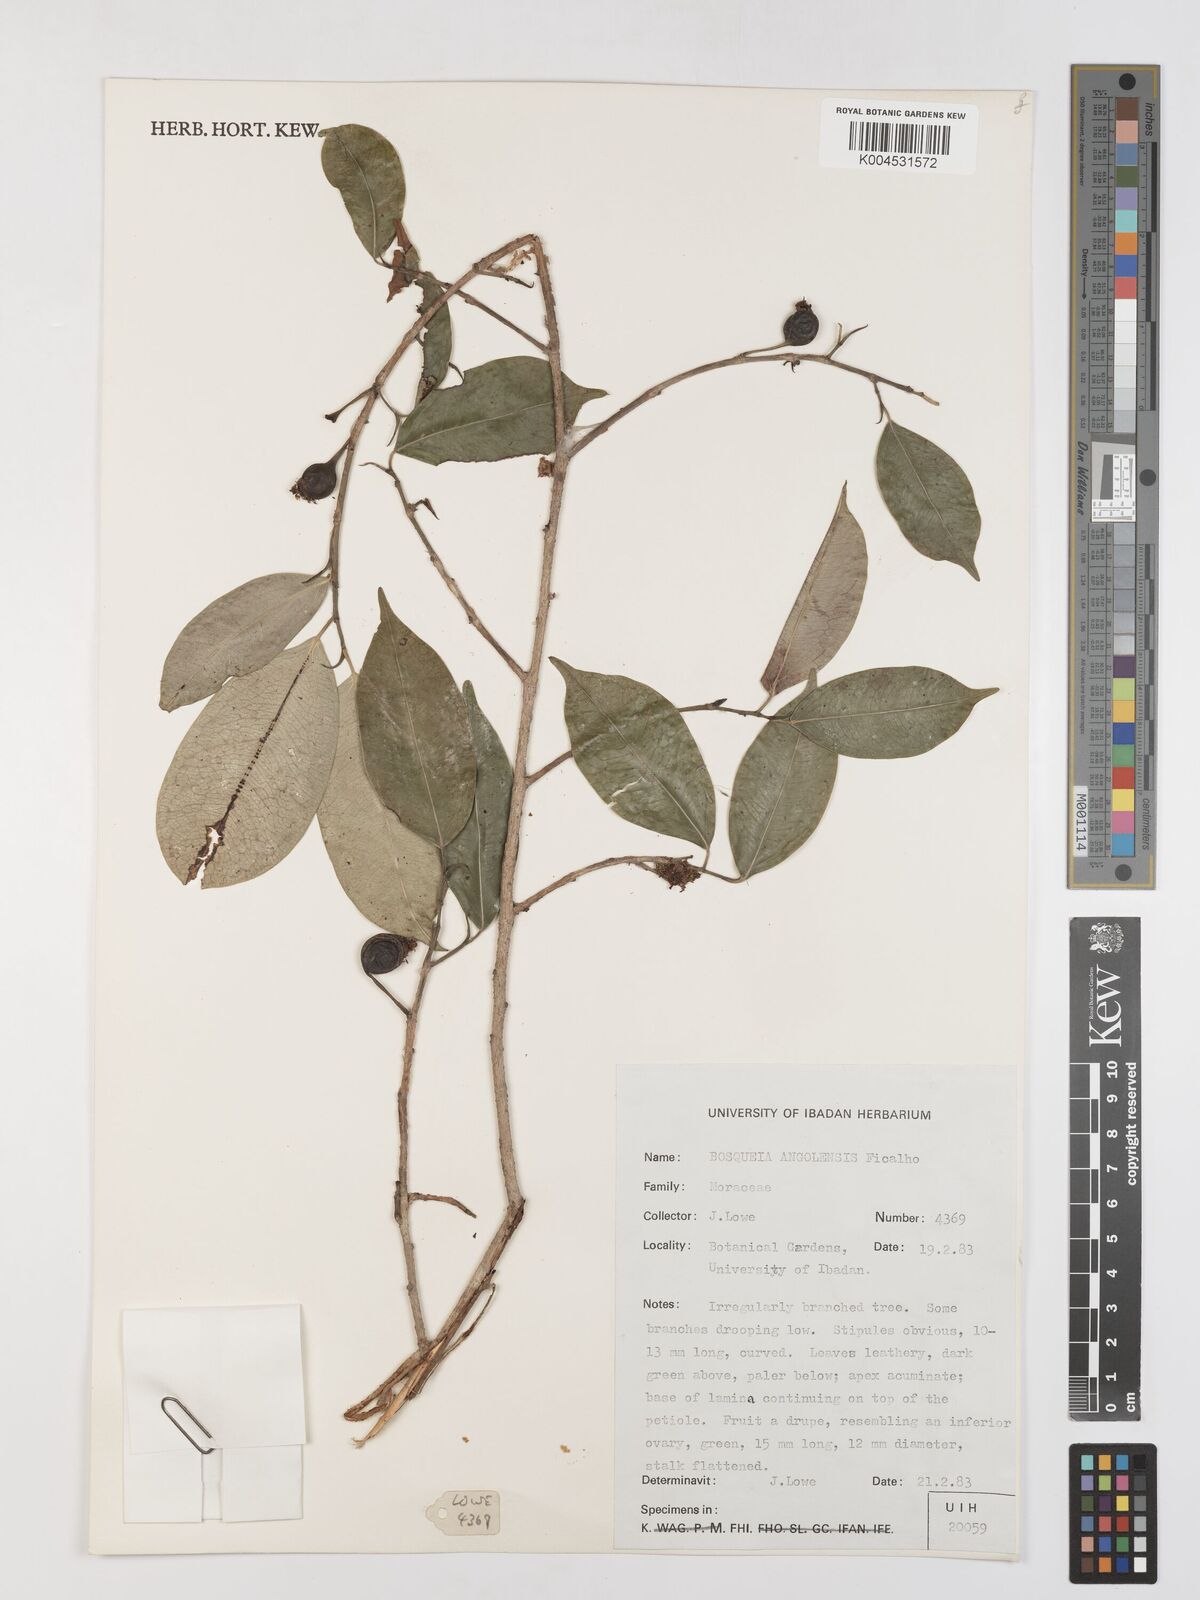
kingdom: Plantae
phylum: Tracheophyta
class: Magnoliopsida
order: Rosales
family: Moraceae
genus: Trilepisium
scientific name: Trilepisium madagascariense
